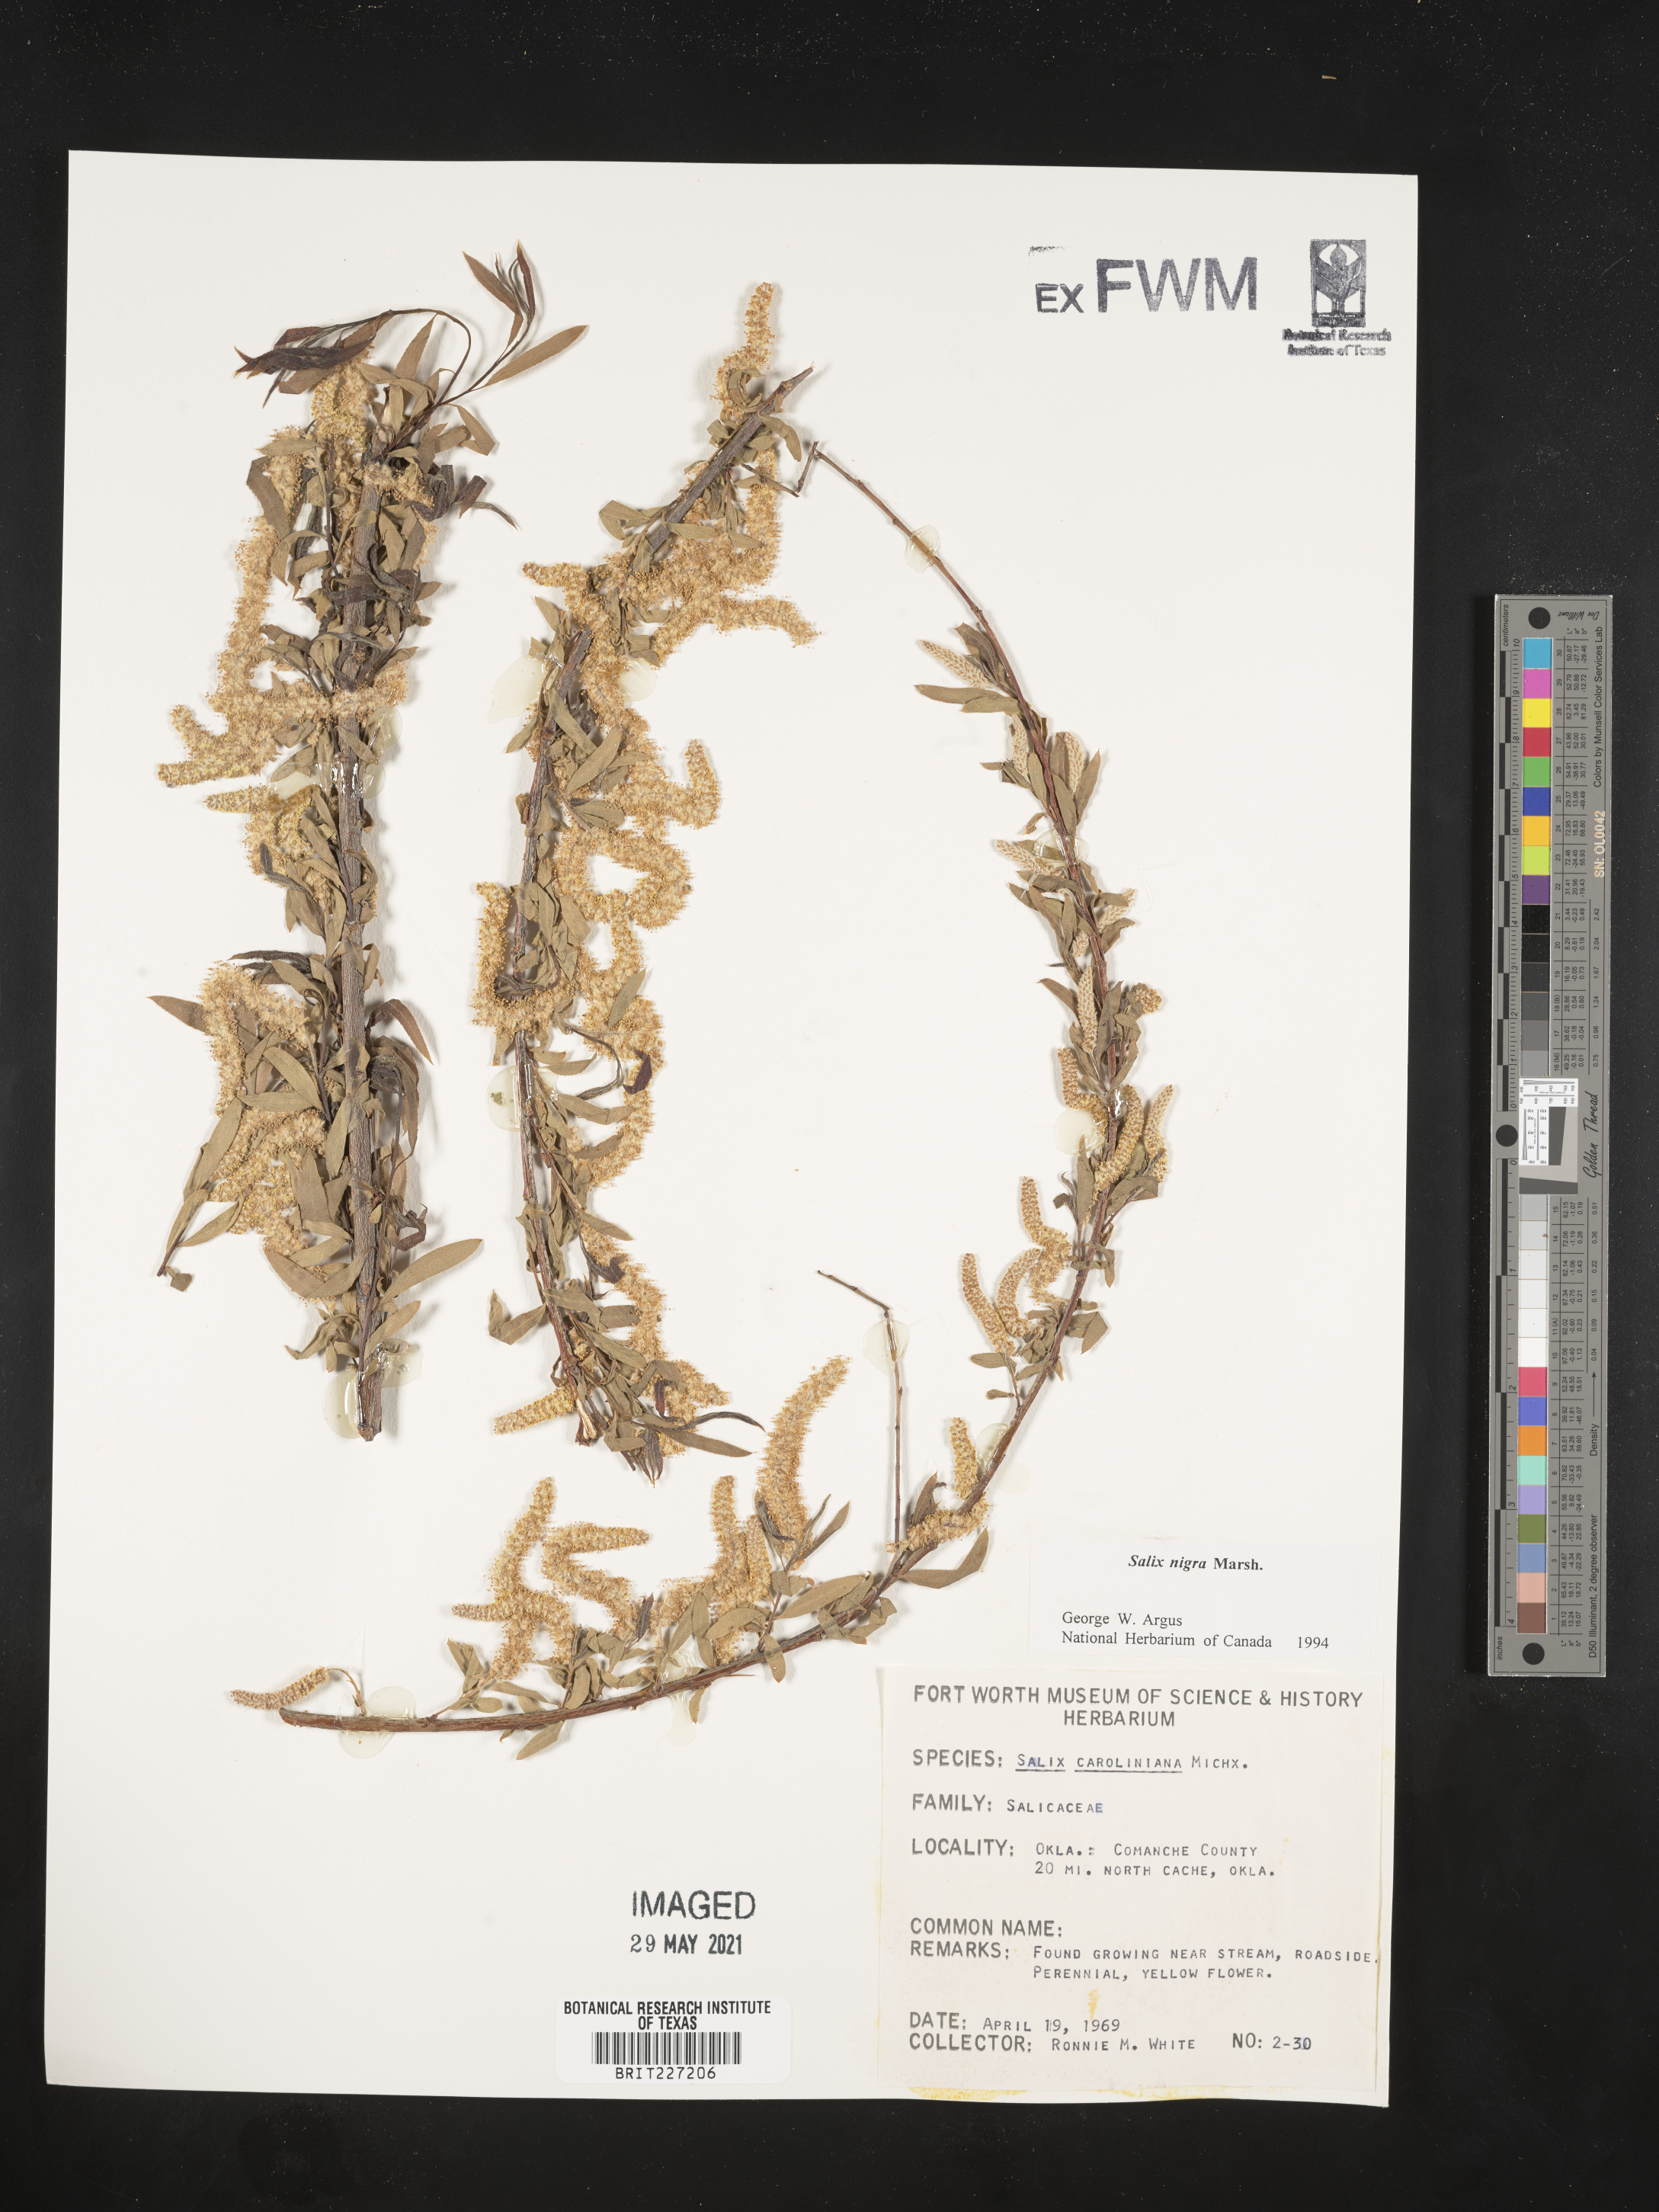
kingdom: Plantae
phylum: Tracheophyta
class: Magnoliopsida
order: Malpighiales
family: Salicaceae
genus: Salix
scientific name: Salix nigra
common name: Black willow
